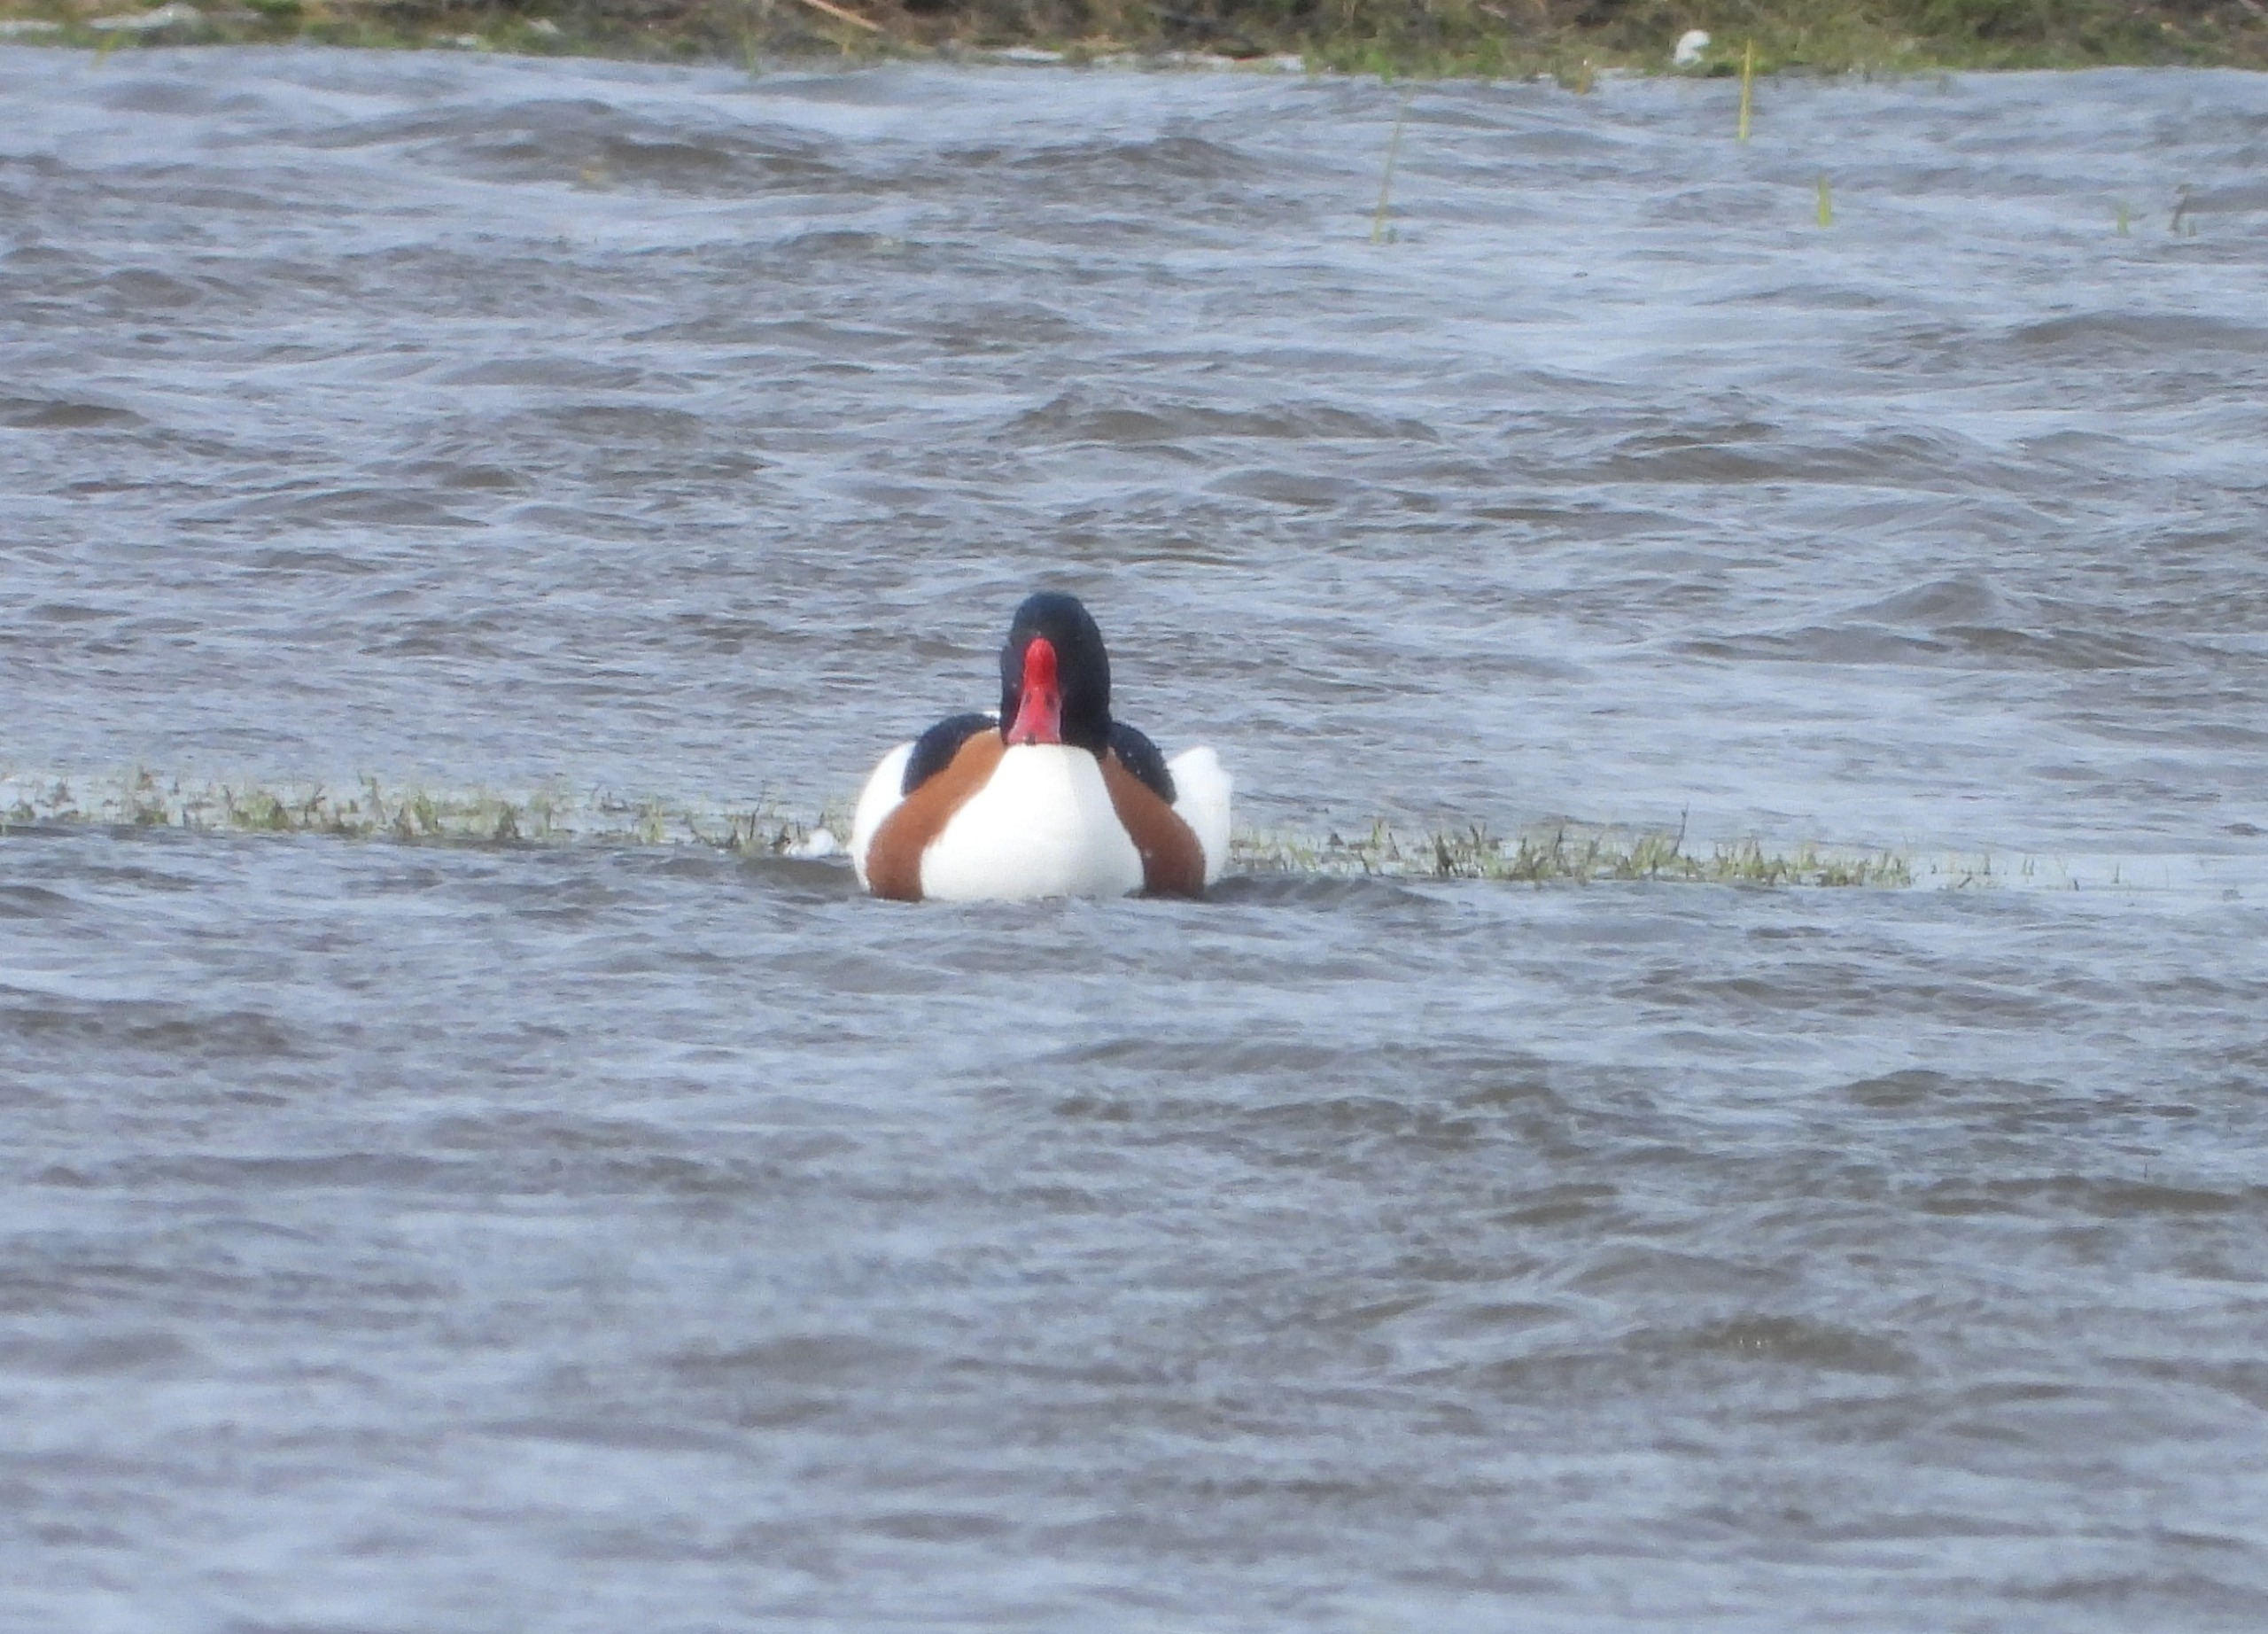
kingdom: Animalia
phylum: Chordata
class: Aves
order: Anseriformes
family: Anatidae
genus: Tadorna
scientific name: Tadorna tadorna
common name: Gravand
